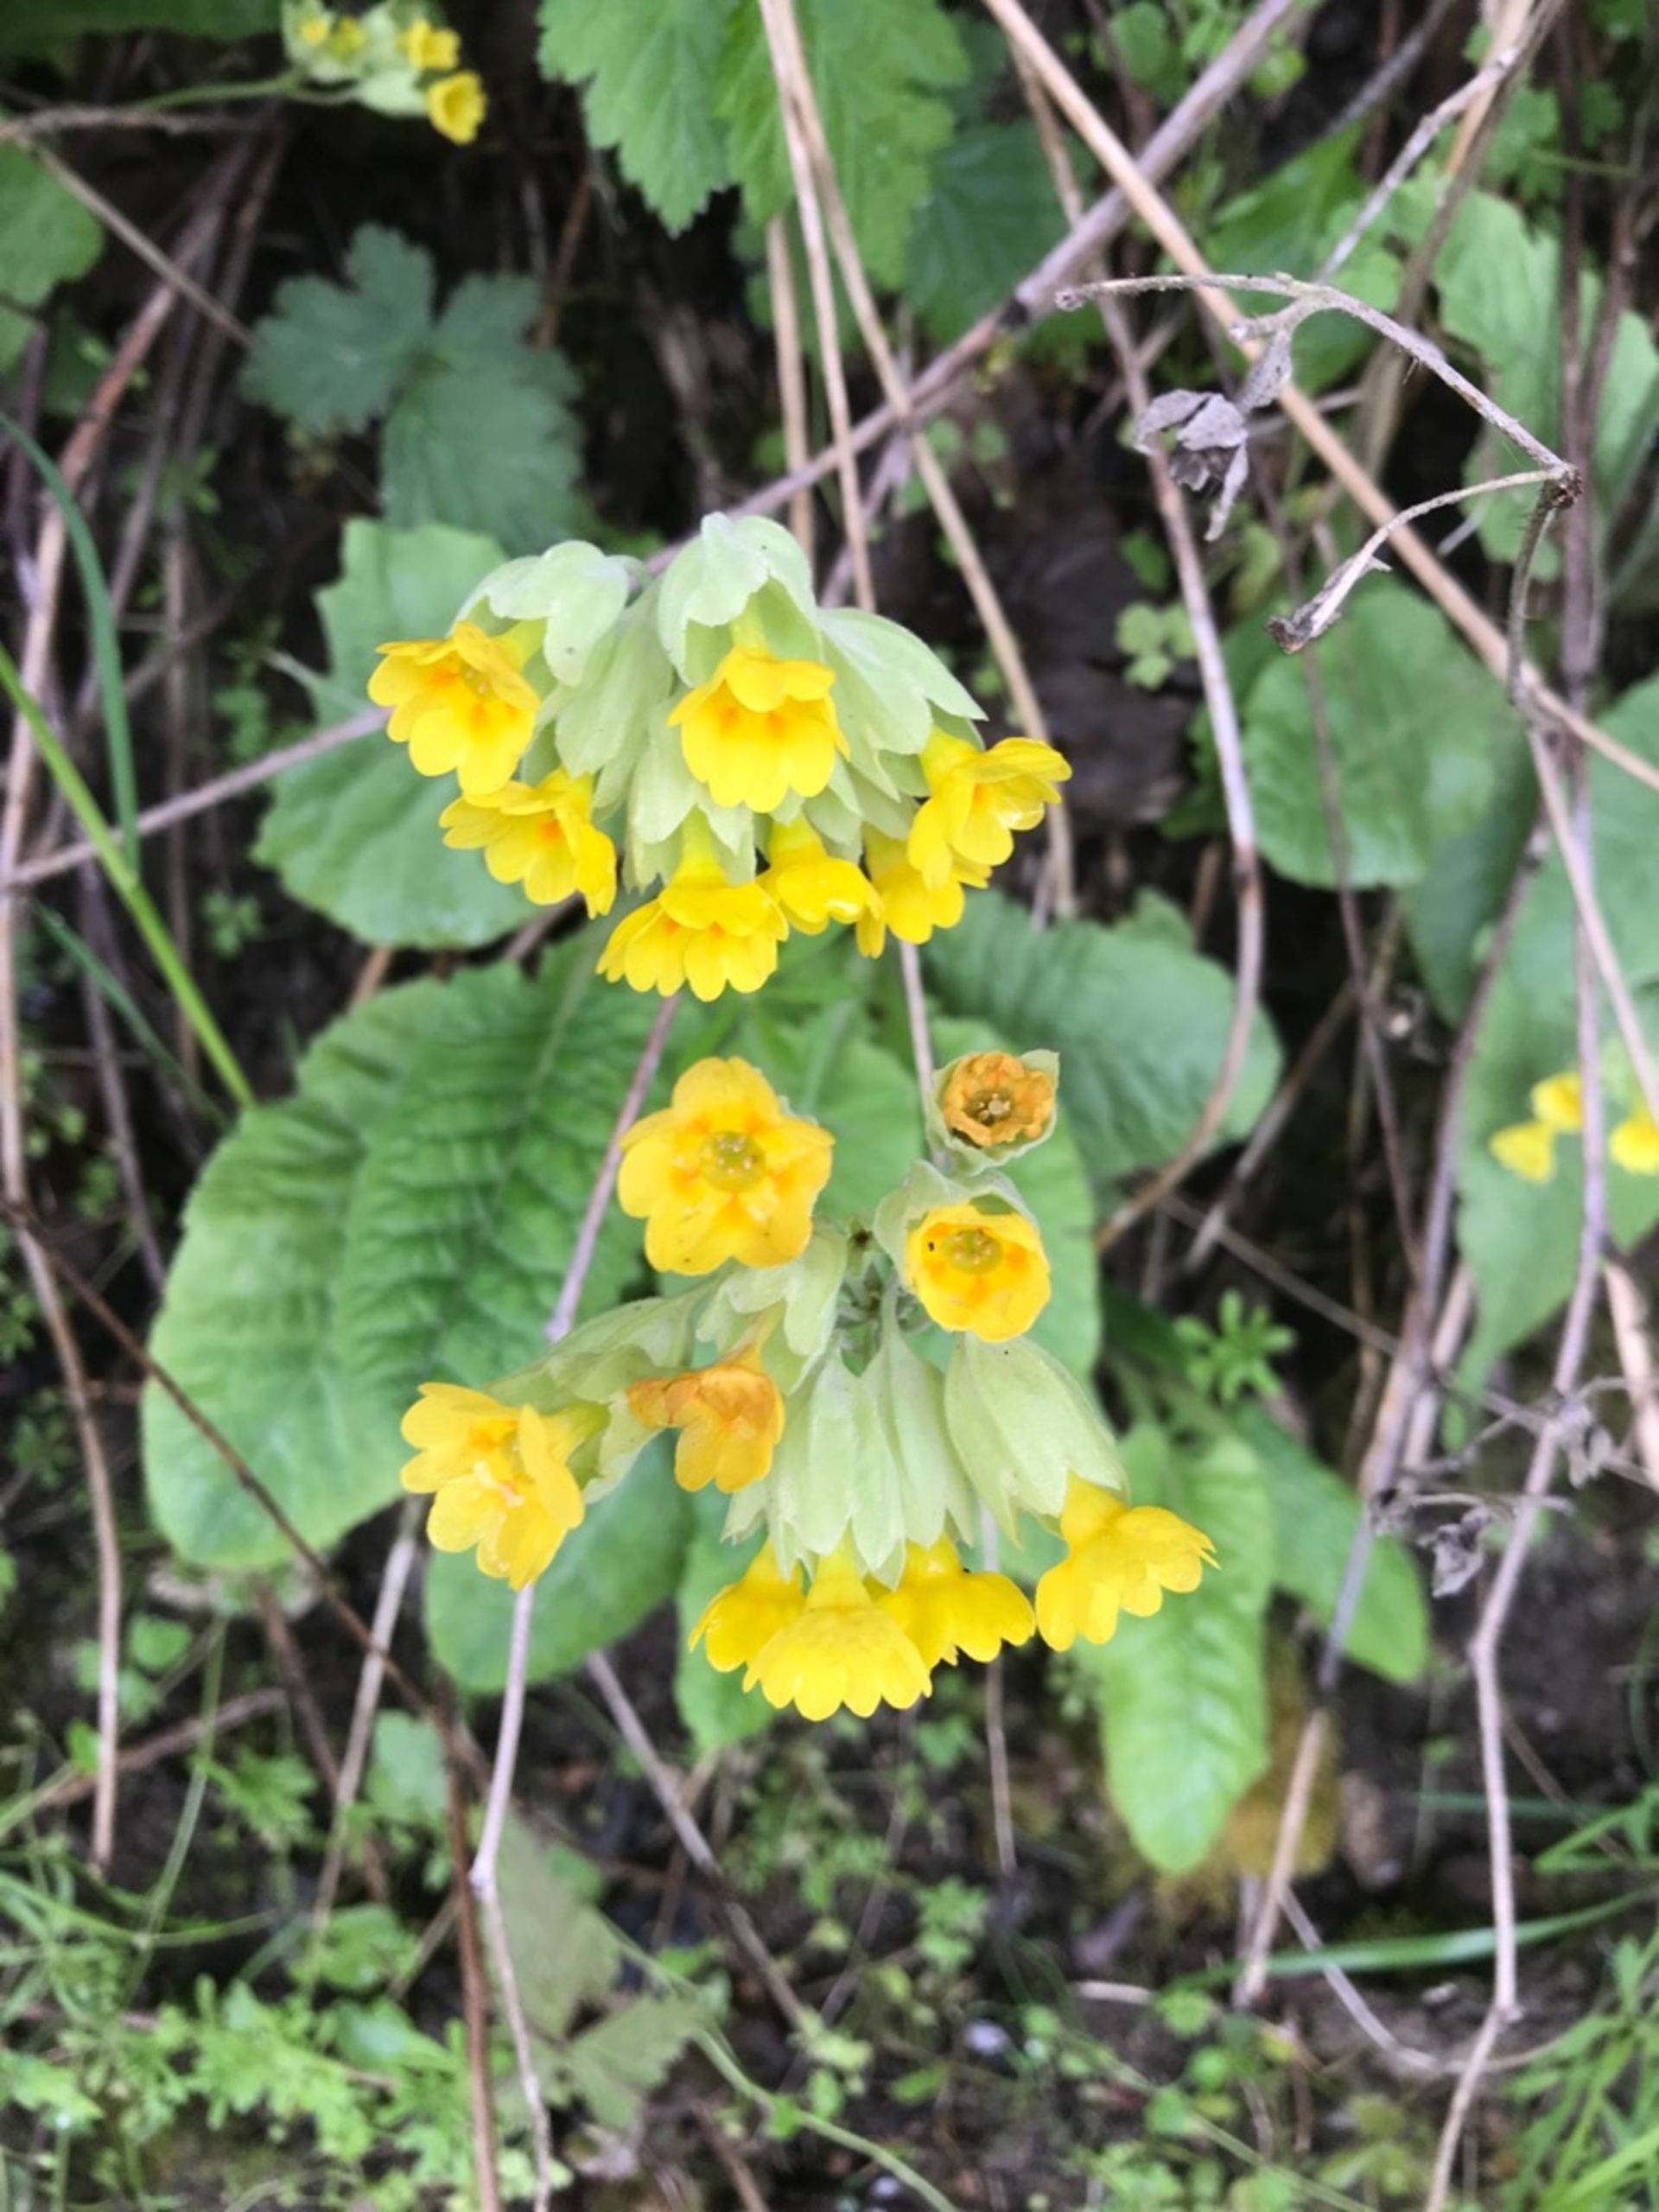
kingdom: Plantae
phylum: Tracheophyta
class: Magnoliopsida
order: Ericales
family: Primulaceae
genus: Primula
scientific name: Primula veris
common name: Hulkravet kodriver
